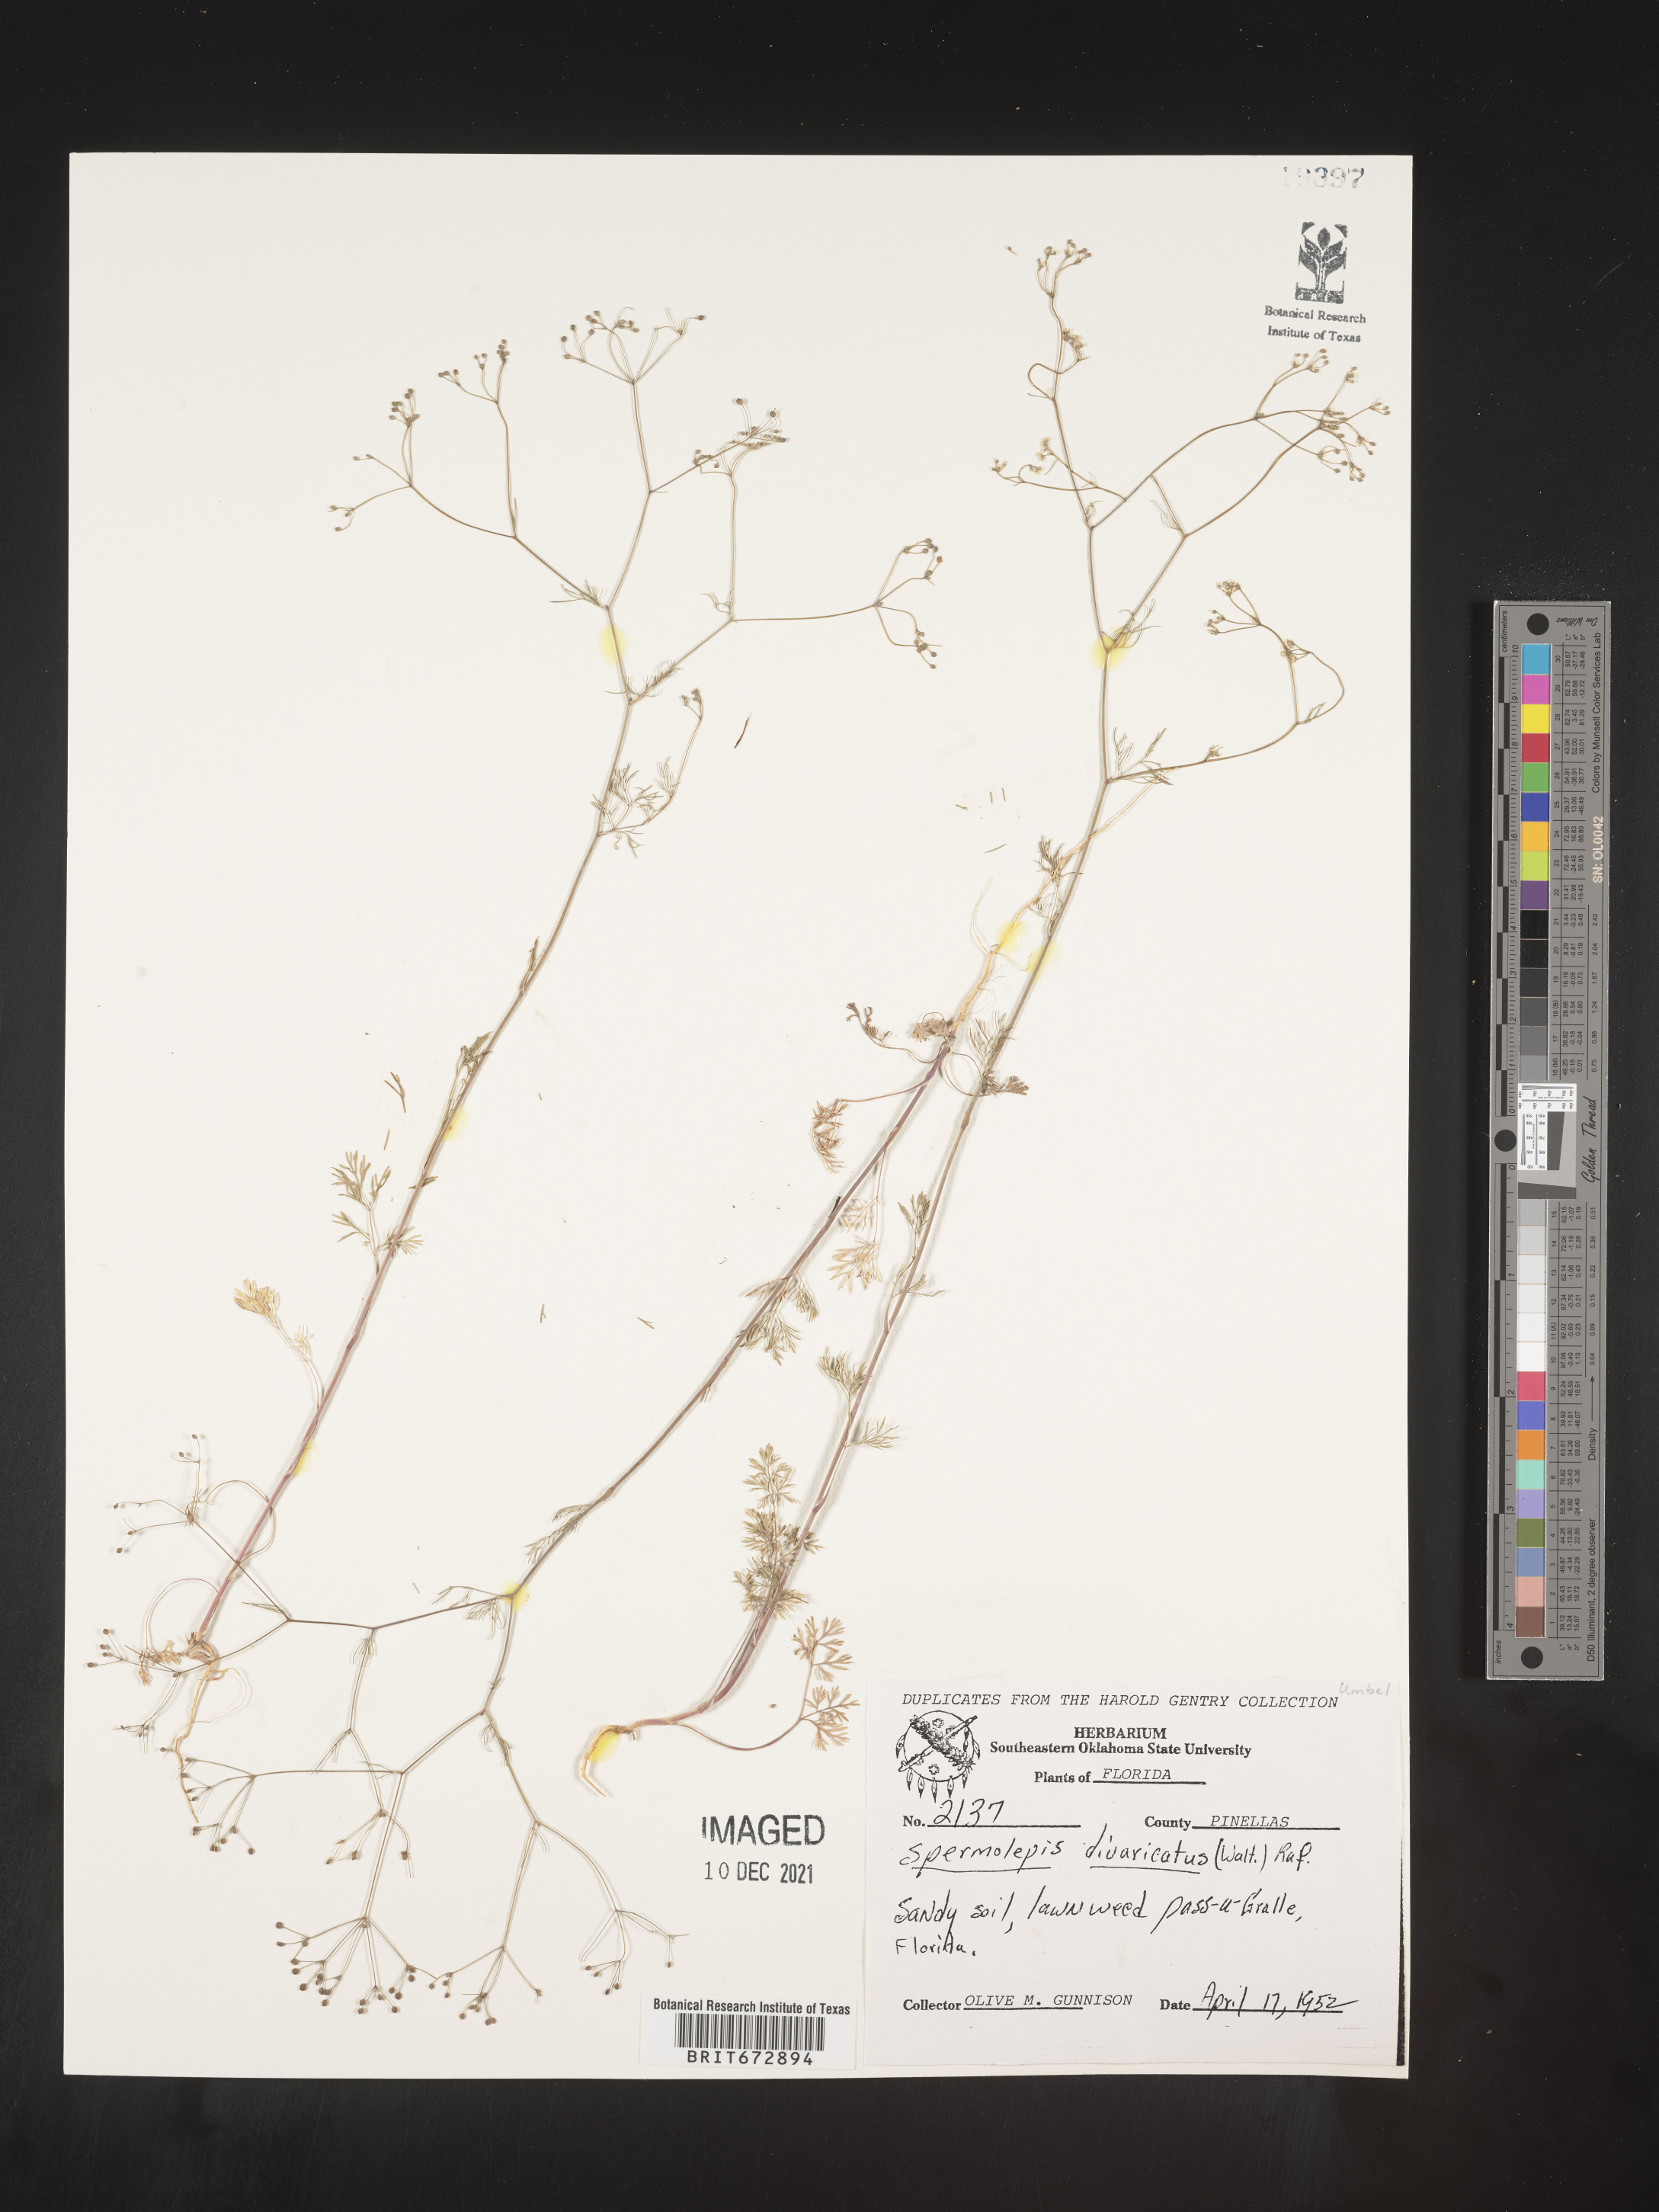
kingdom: Plantae
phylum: Tracheophyta
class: Magnoliopsida
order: Apiales
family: Apiaceae
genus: Spermolepis
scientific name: Spermolepis divaricata
